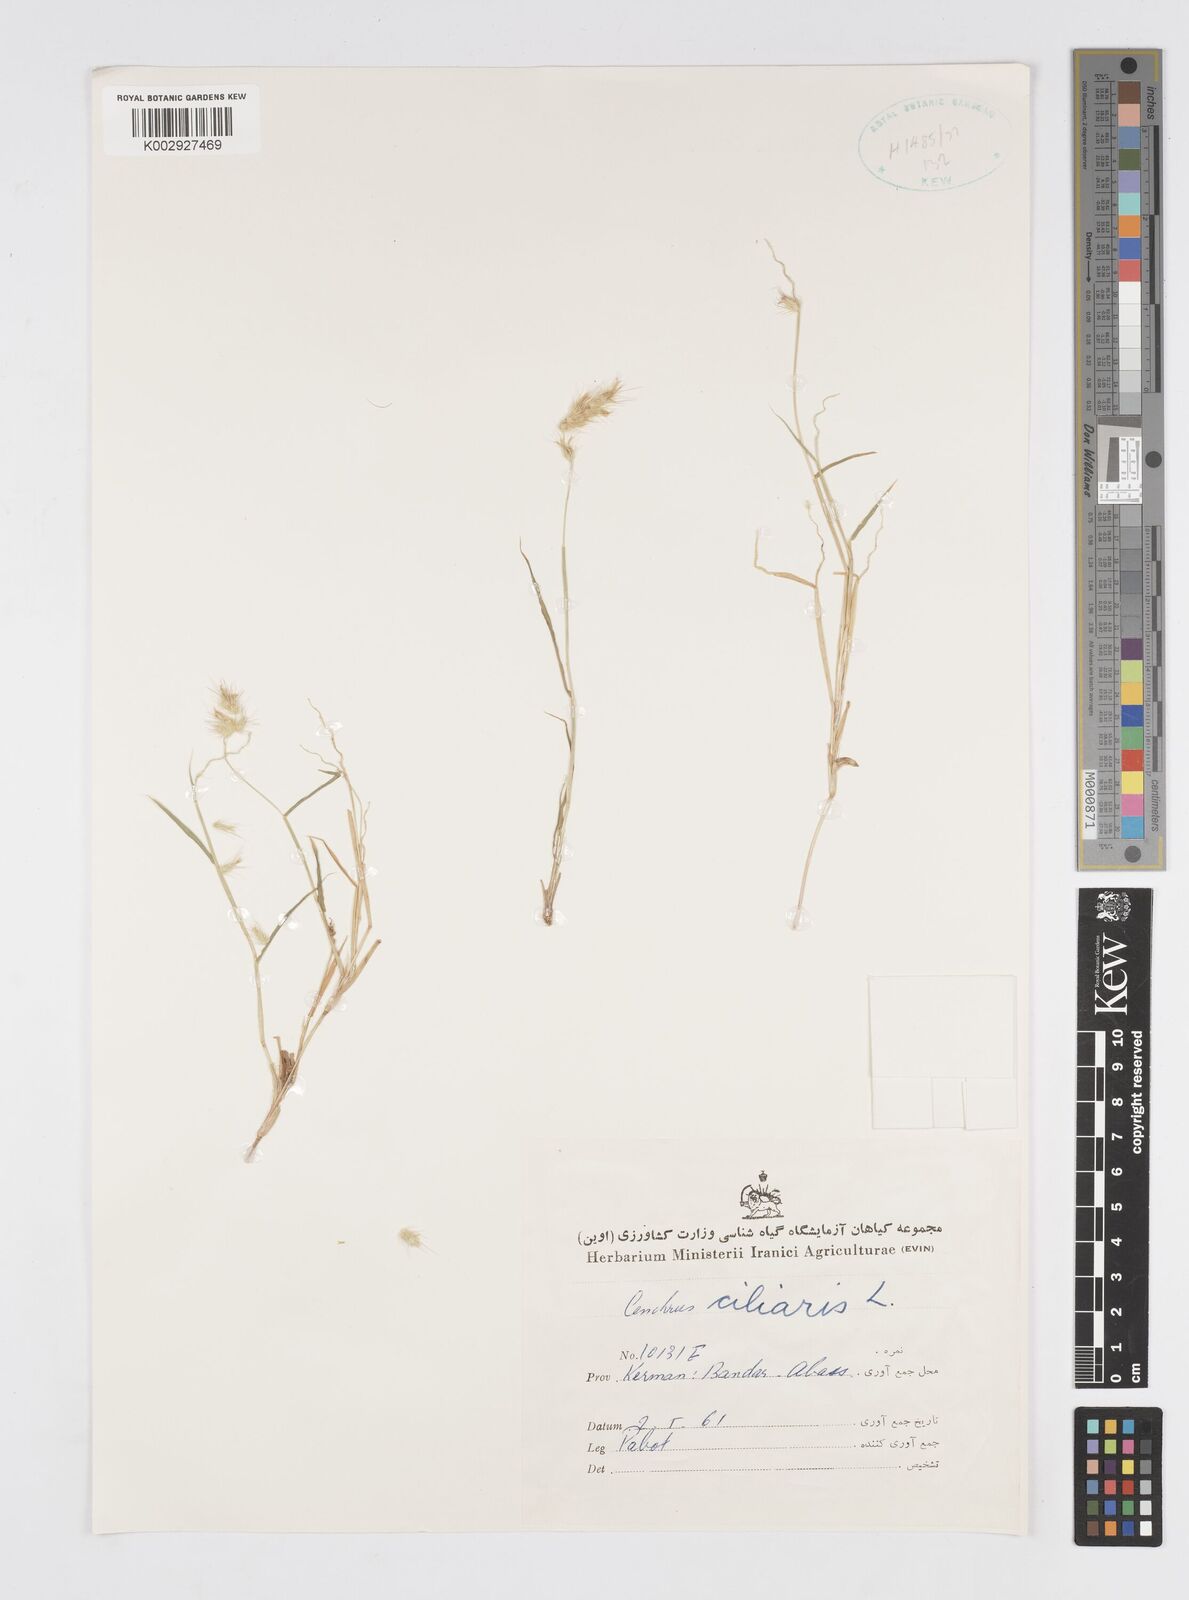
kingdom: Plantae
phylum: Tracheophyta
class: Liliopsida
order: Poales
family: Poaceae
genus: Cenchrus
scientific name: Cenchrus pennisetiformis
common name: Cloncurry
